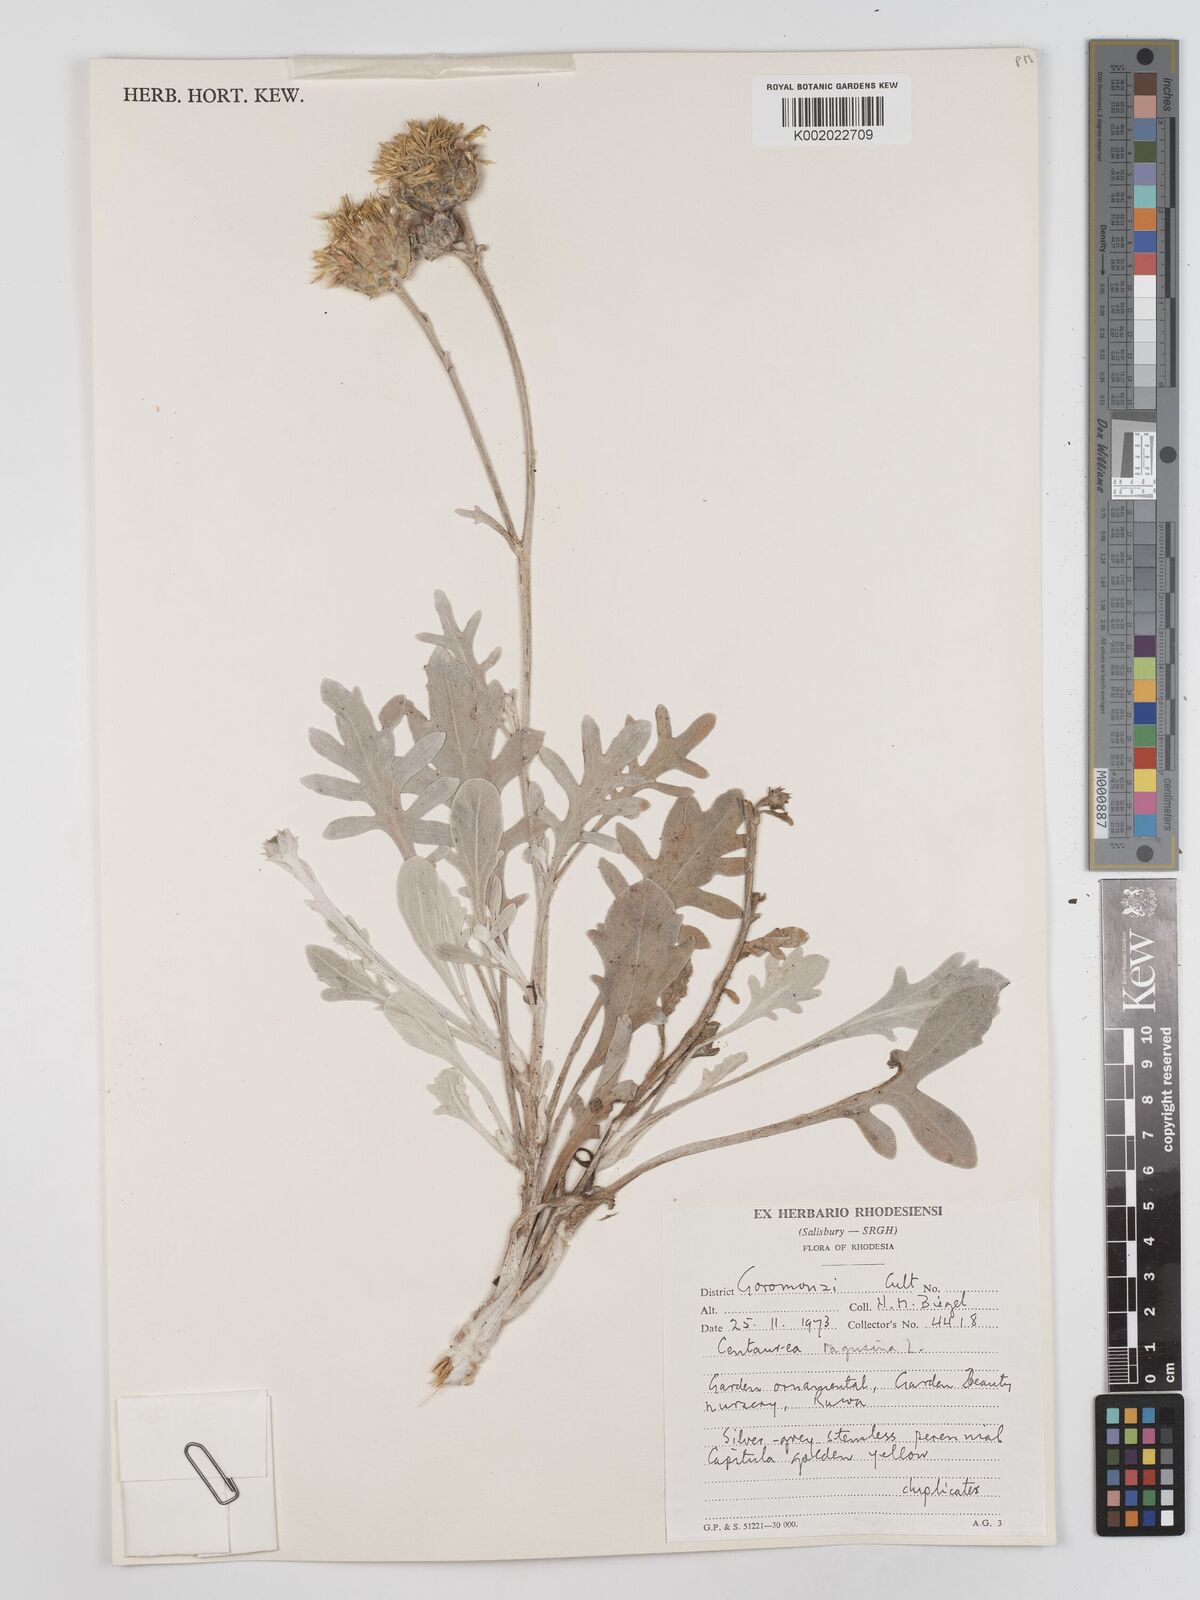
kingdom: Plantae
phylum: Tracheophyta
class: Magnoliopsida
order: Asterales
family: Asteraceae
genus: Centaurea
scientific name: Centaurea ragusina
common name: Dusty-miller
